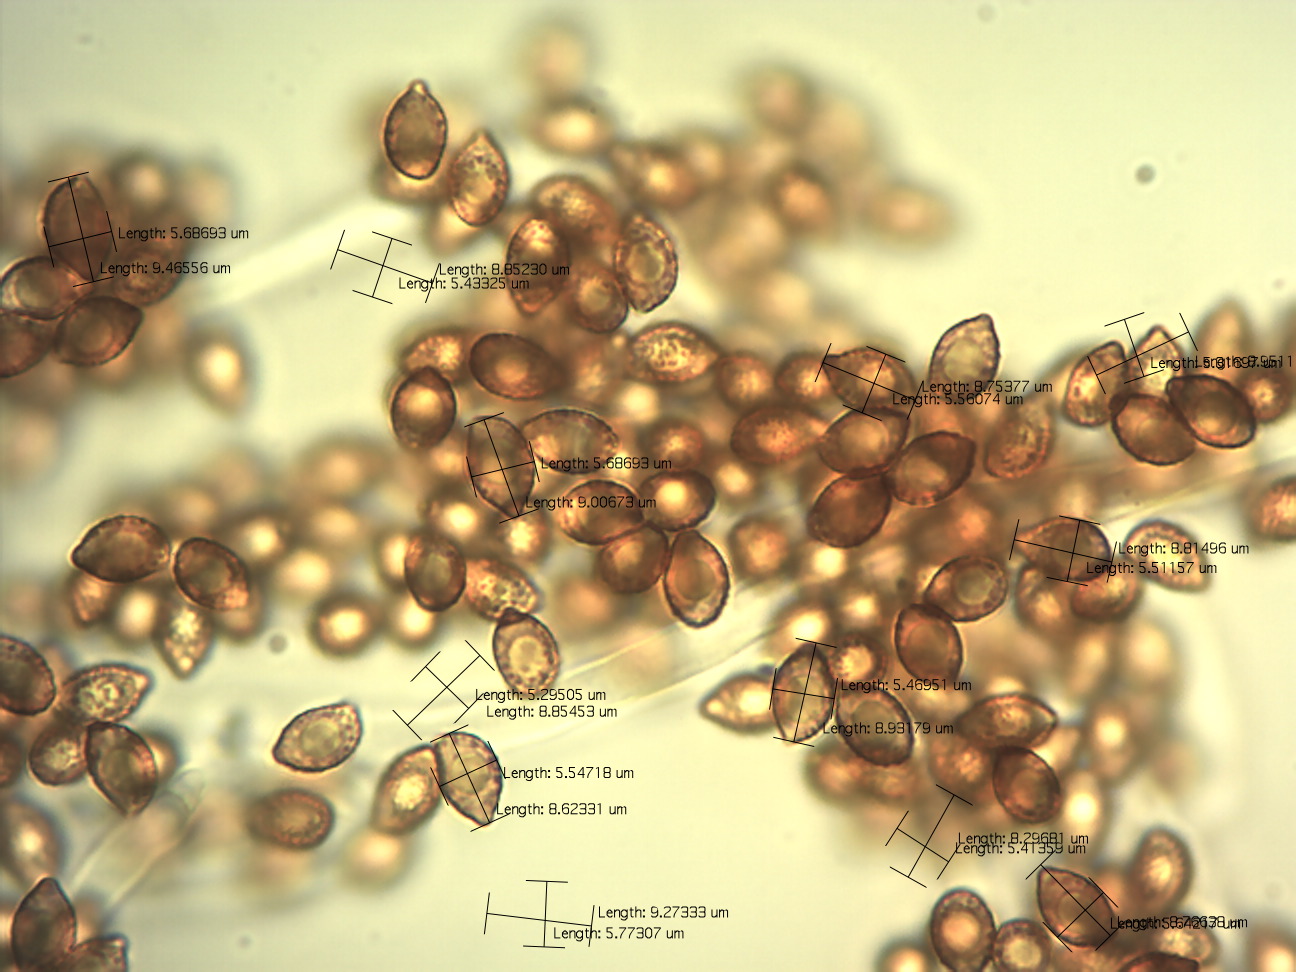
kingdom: Fungi
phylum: Basidiomycota
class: Agaricomycetes
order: Agaricales
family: Cortinariaceae
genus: Phlegmacium
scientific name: Phlegmacium viridocoeruleum
